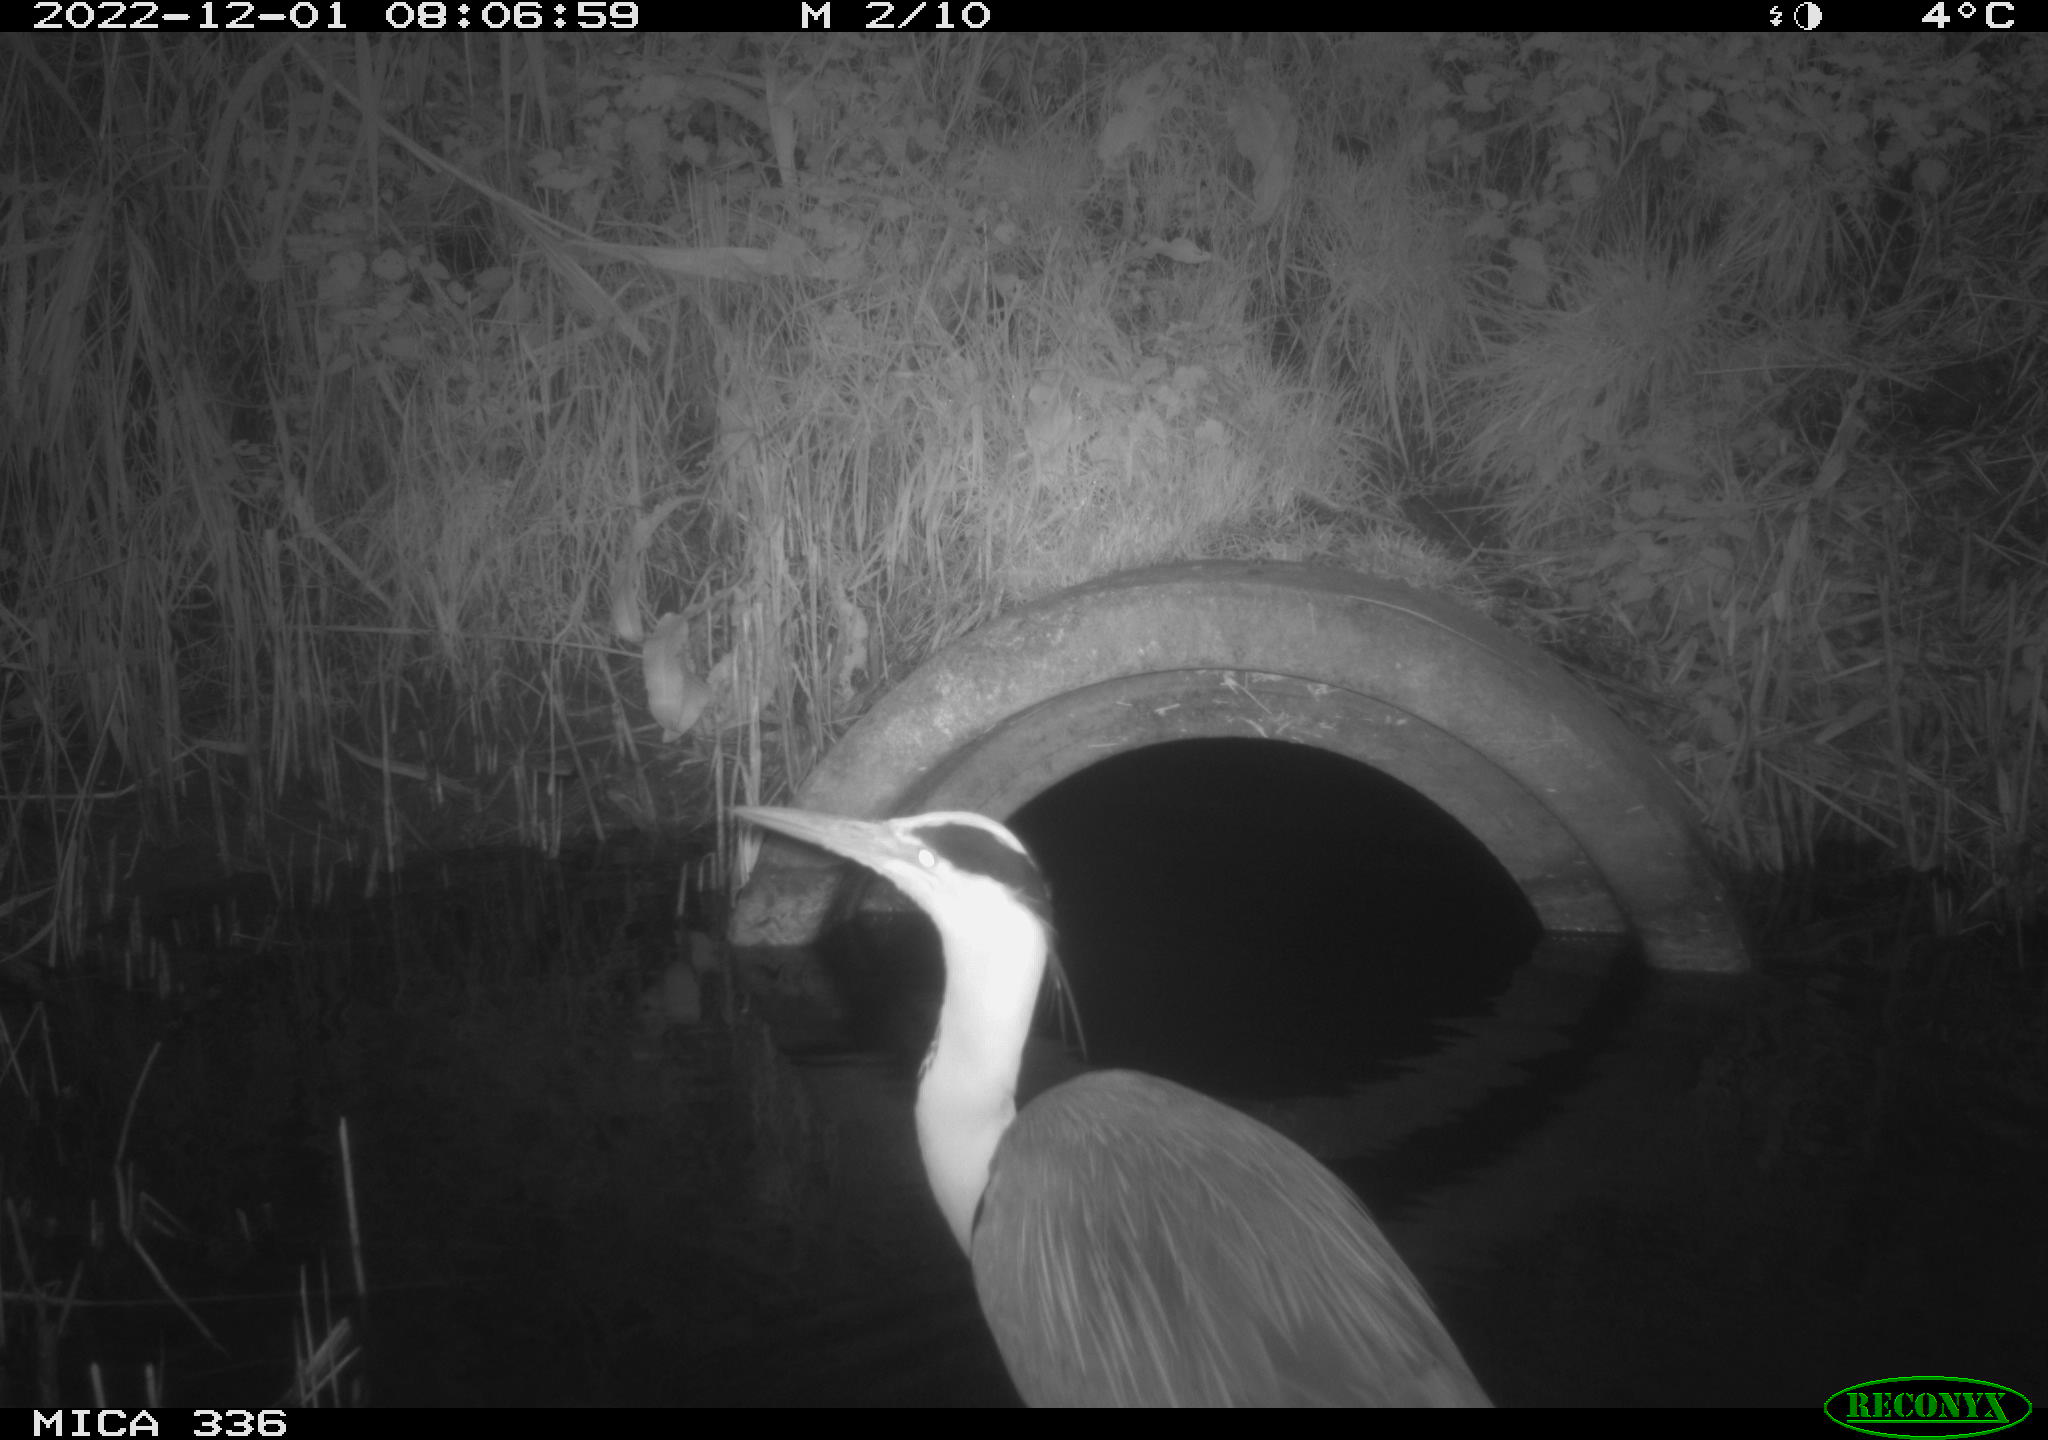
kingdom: Animalia
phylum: Chordata
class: Aves
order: Pelecaniformes
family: Ardeidae
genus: Ardea
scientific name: Ardea cinerea
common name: Grey heron
